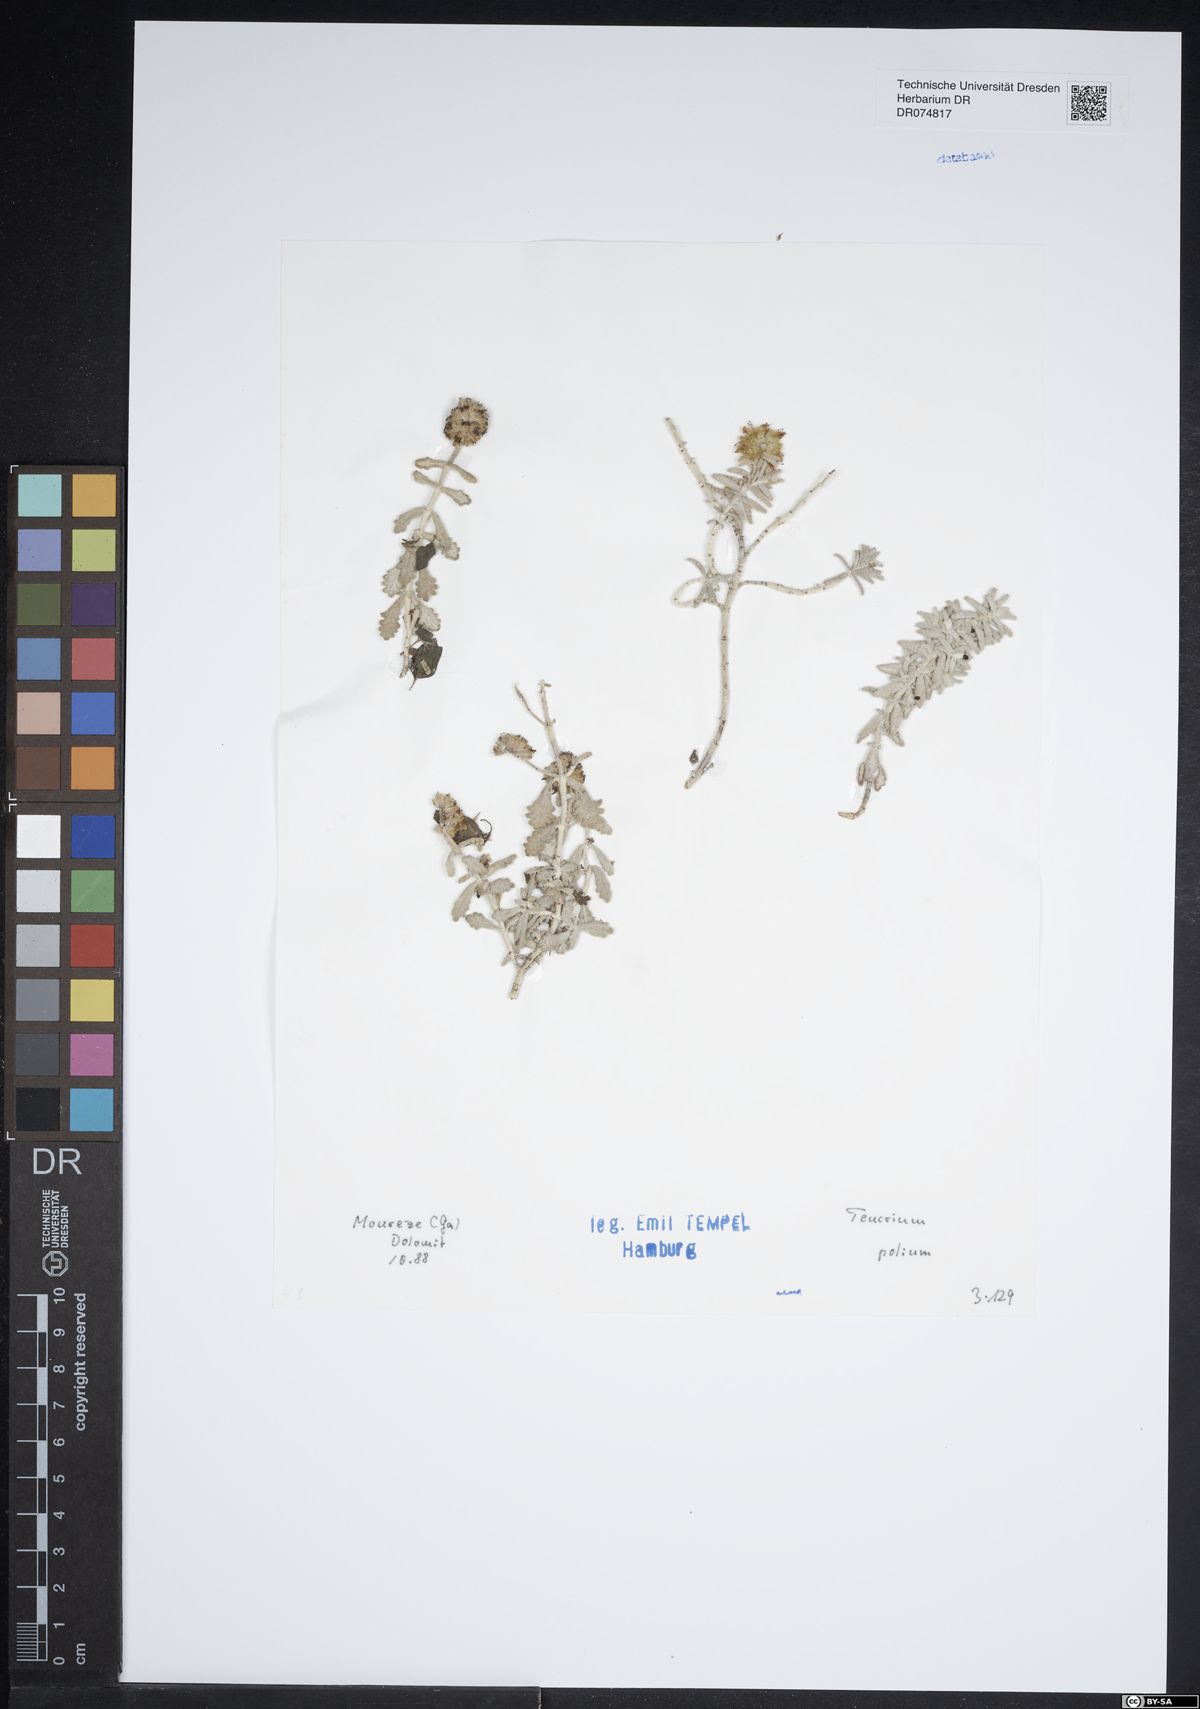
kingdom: Plantae
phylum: Tracheophyta
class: Magnoliopsida
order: Lamiales
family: Lamiaceae
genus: Teucrium
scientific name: Teucrium polium
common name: Poley
